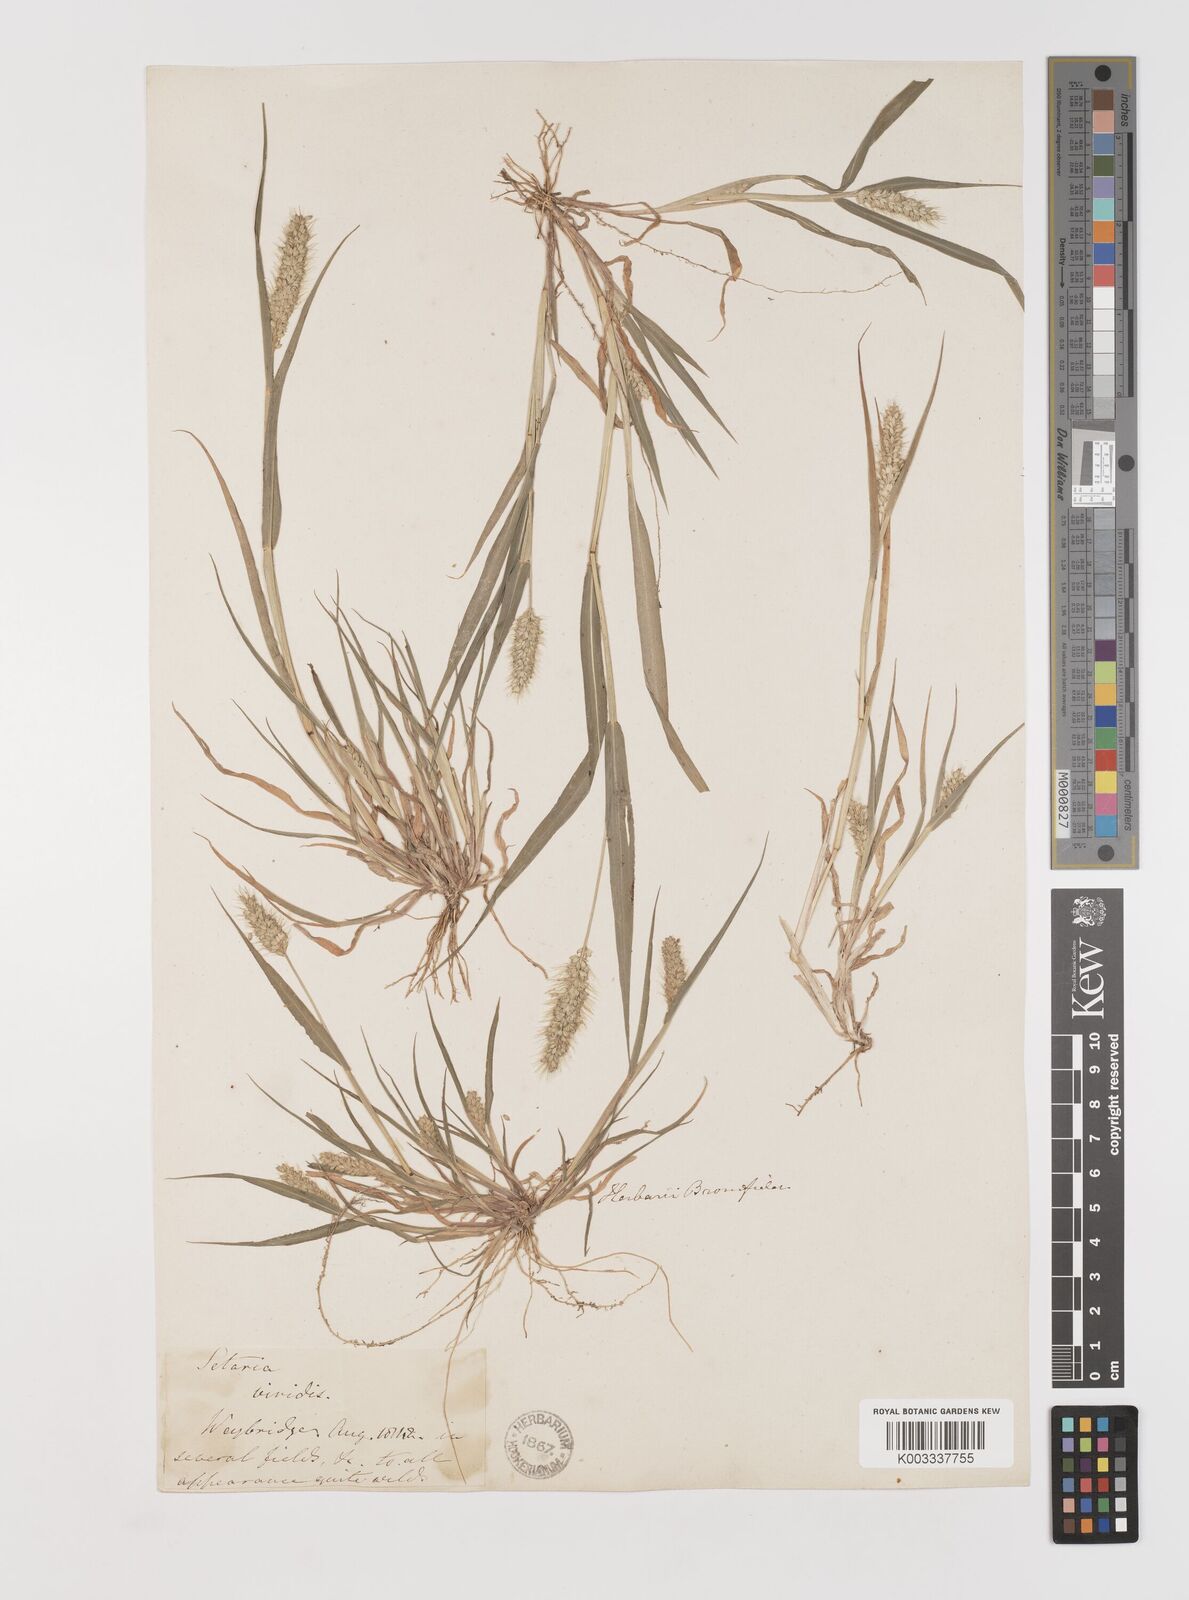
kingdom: Plantae
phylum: Tracheophyta
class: Liliopsida
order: Poales
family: Poaceae
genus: Setaria
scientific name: Setaria viridis
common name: Green bristlegrass
